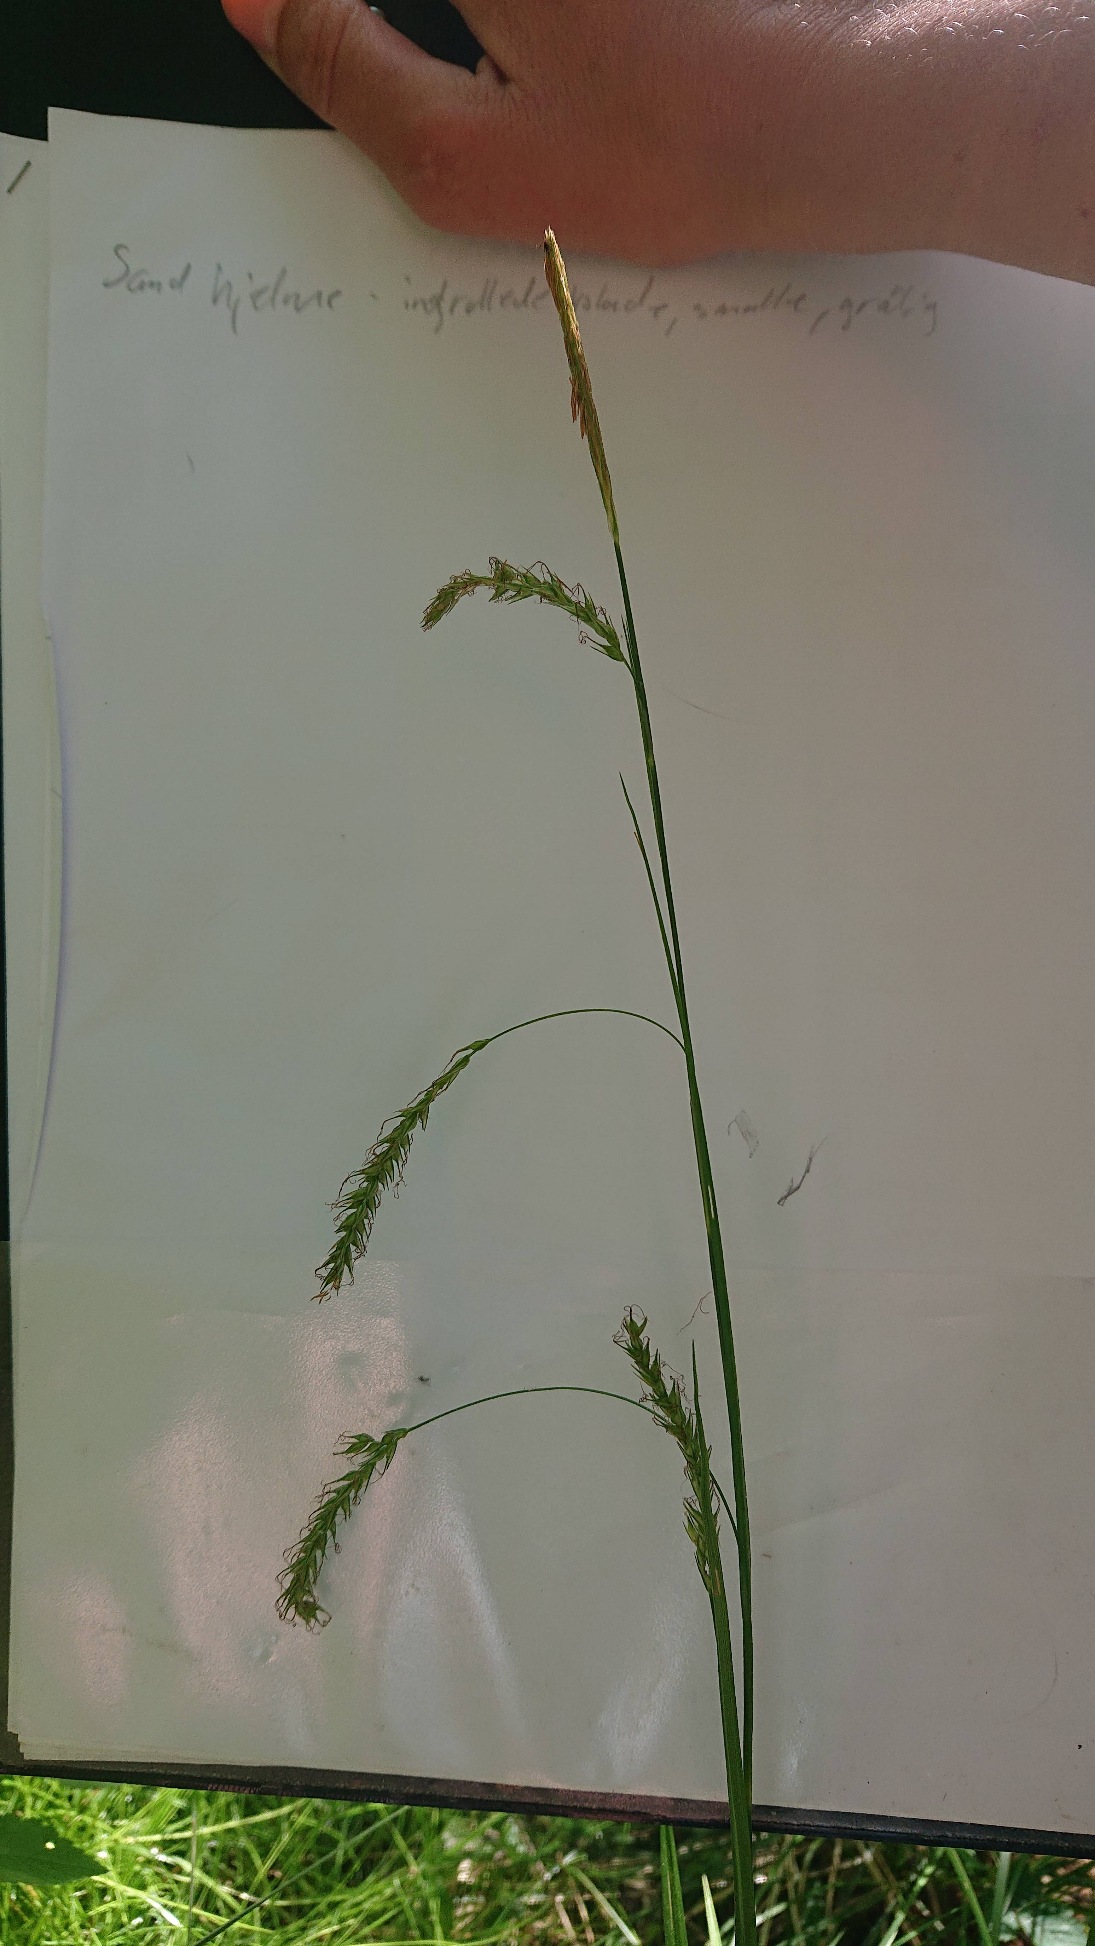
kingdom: Plantae
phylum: Tracheophyta
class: Liliopsida
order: Poales
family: Cyperaceae
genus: Carex
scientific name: Carex sylvatica
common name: Skov-star
